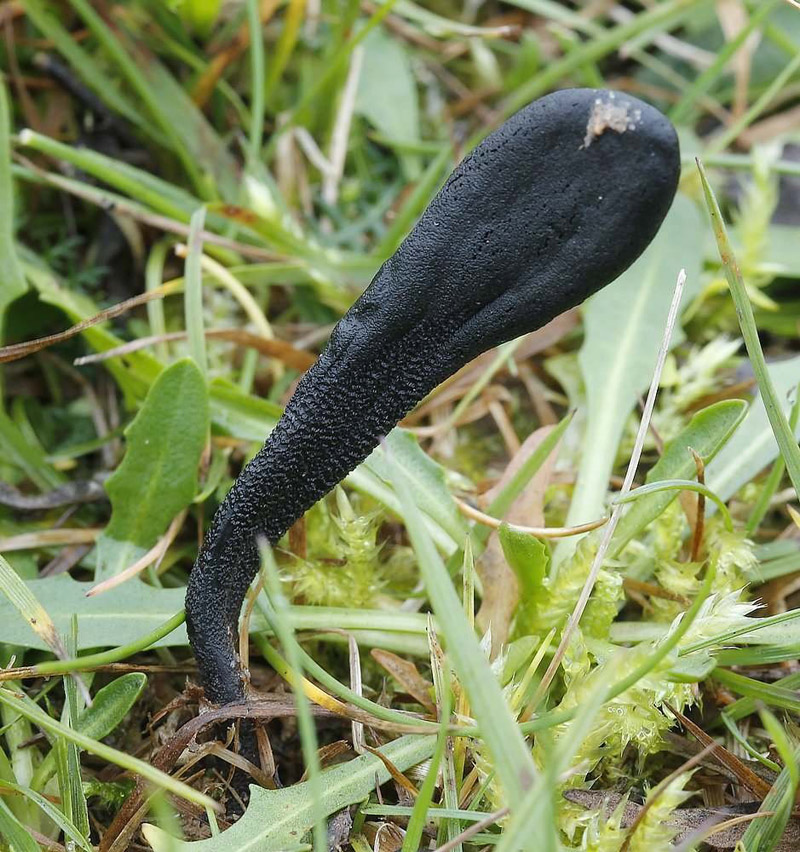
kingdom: Fungi
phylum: Ascomycota
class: Geoglossomycetes
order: Geoglossales
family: Geoglossaceae
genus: Geoglossum
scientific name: Geoglossum fallax
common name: småskællet jordtunge
